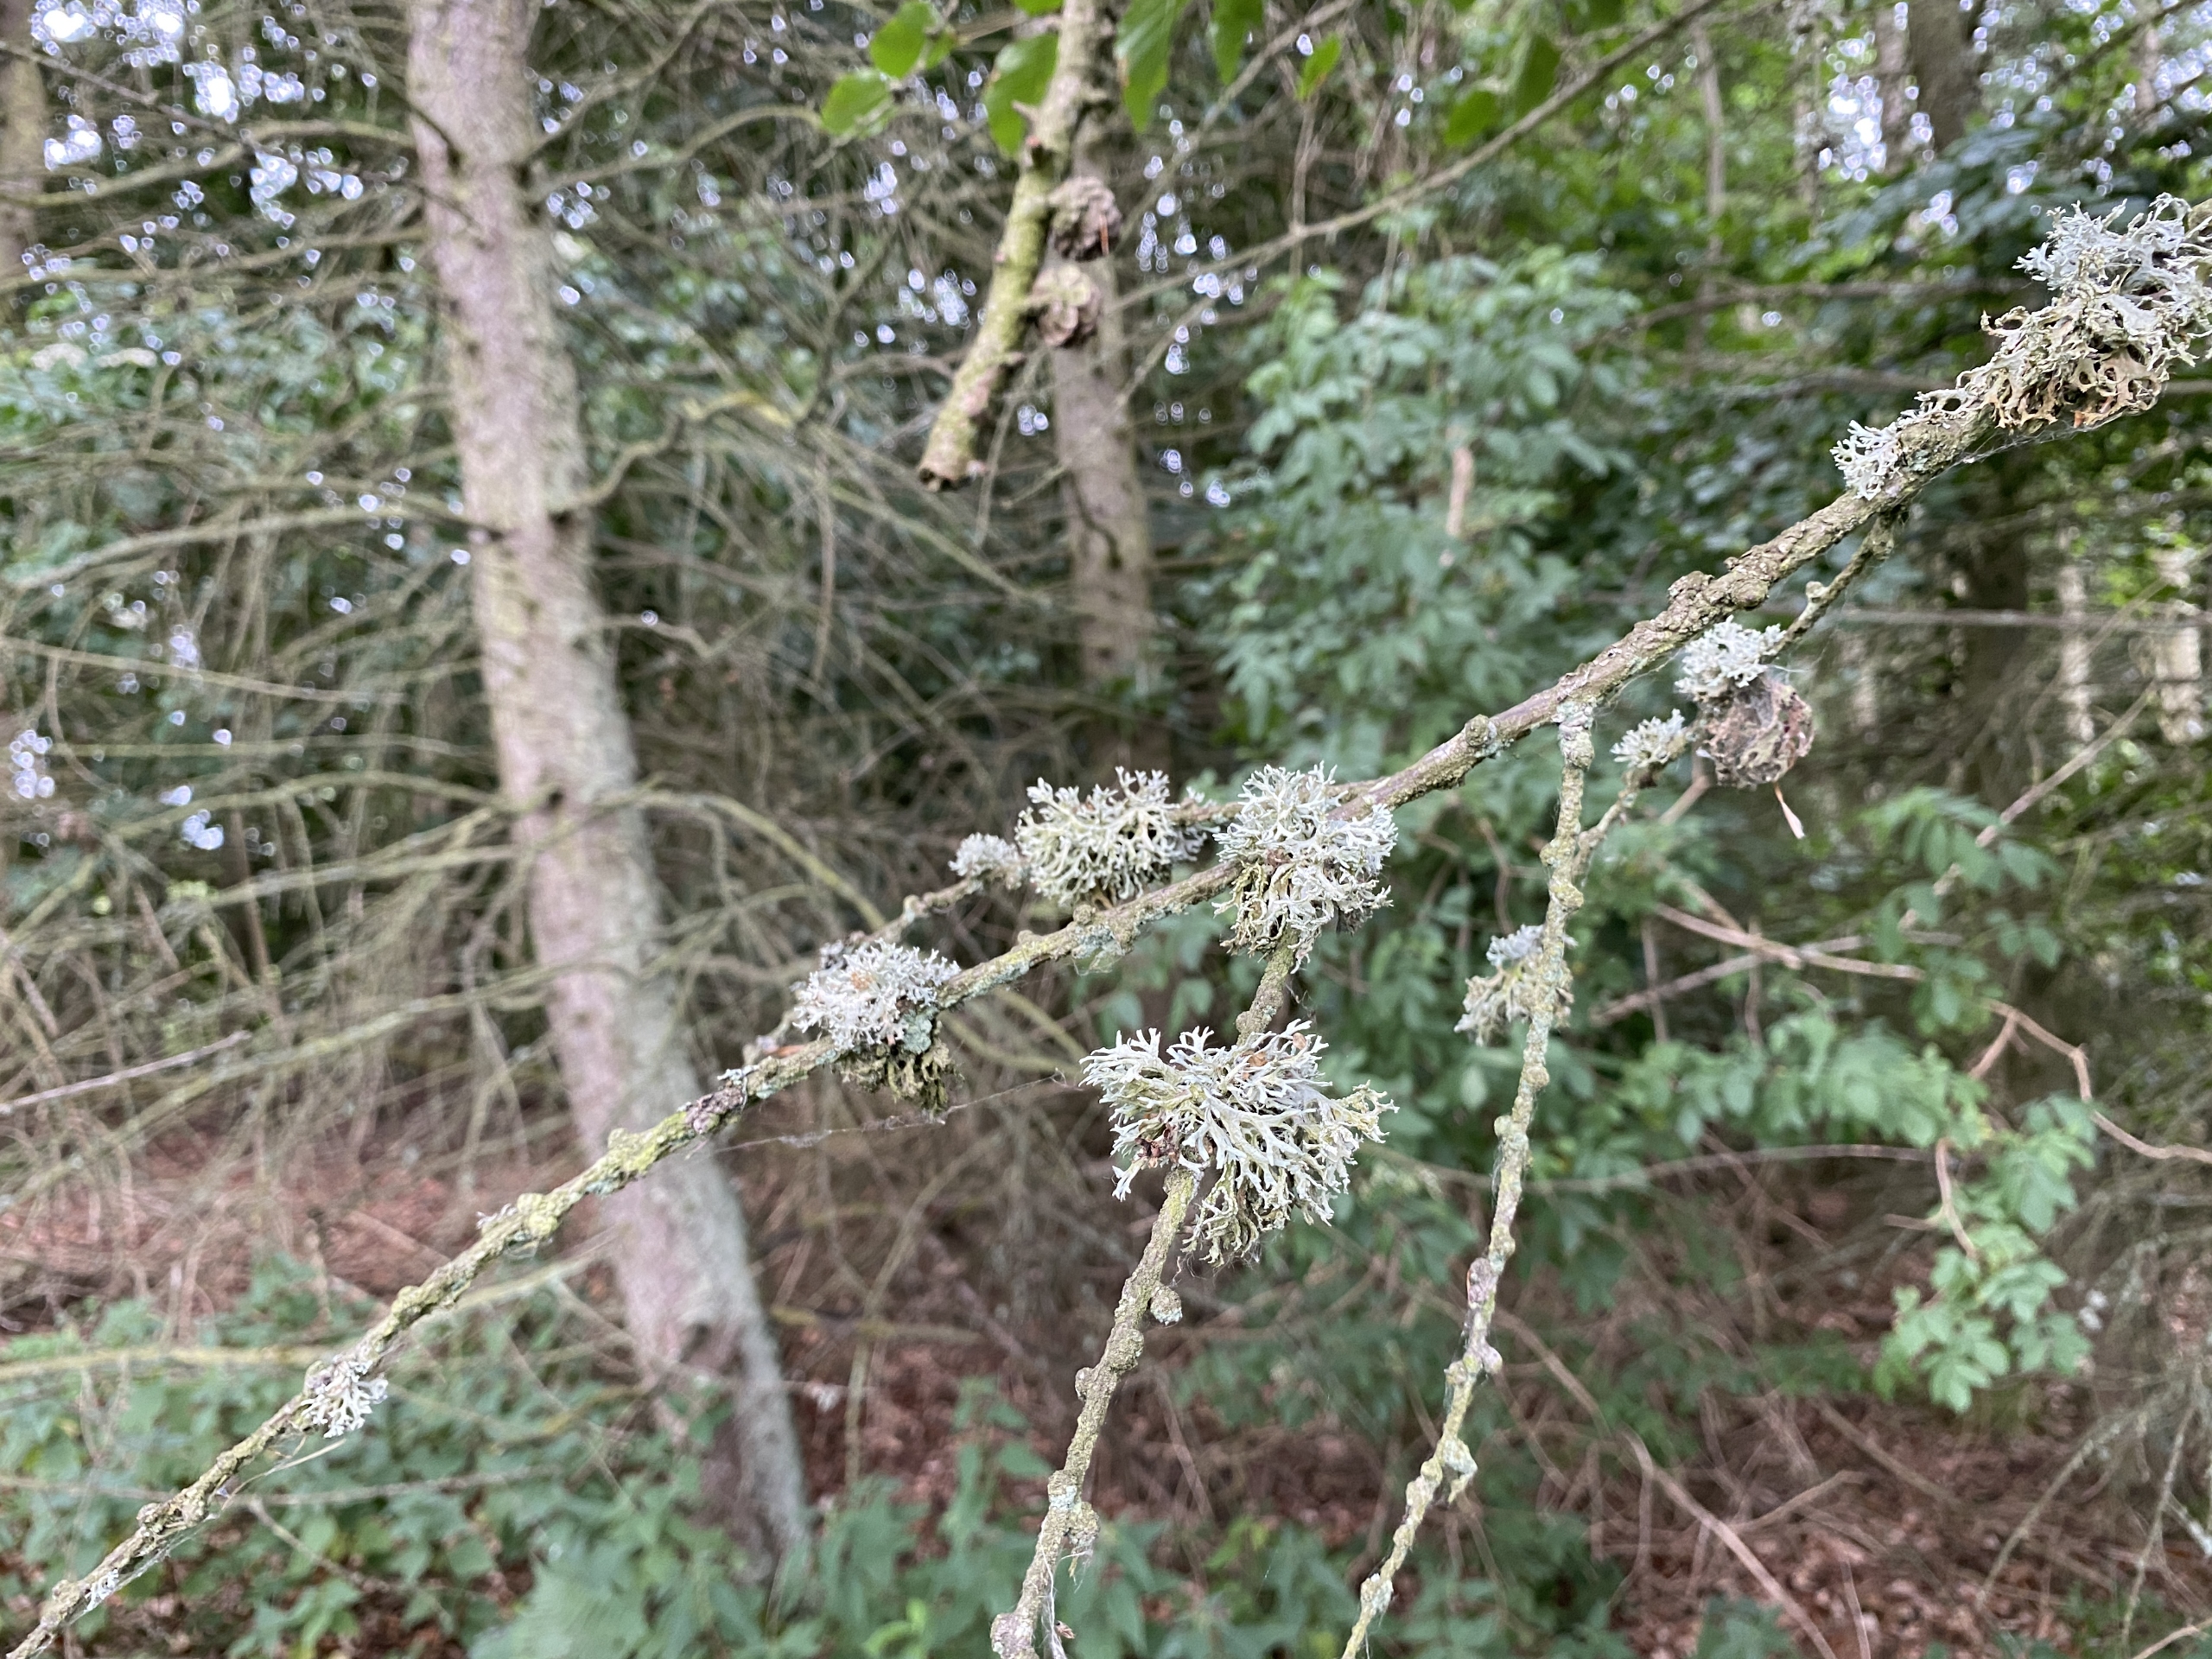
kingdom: Fungi
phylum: Ascomycota
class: Lecanoromycetes
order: Lecanorales
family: Parmeliaceae
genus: Evernia
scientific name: Evernia prunastri
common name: Almindelig slåenlav
